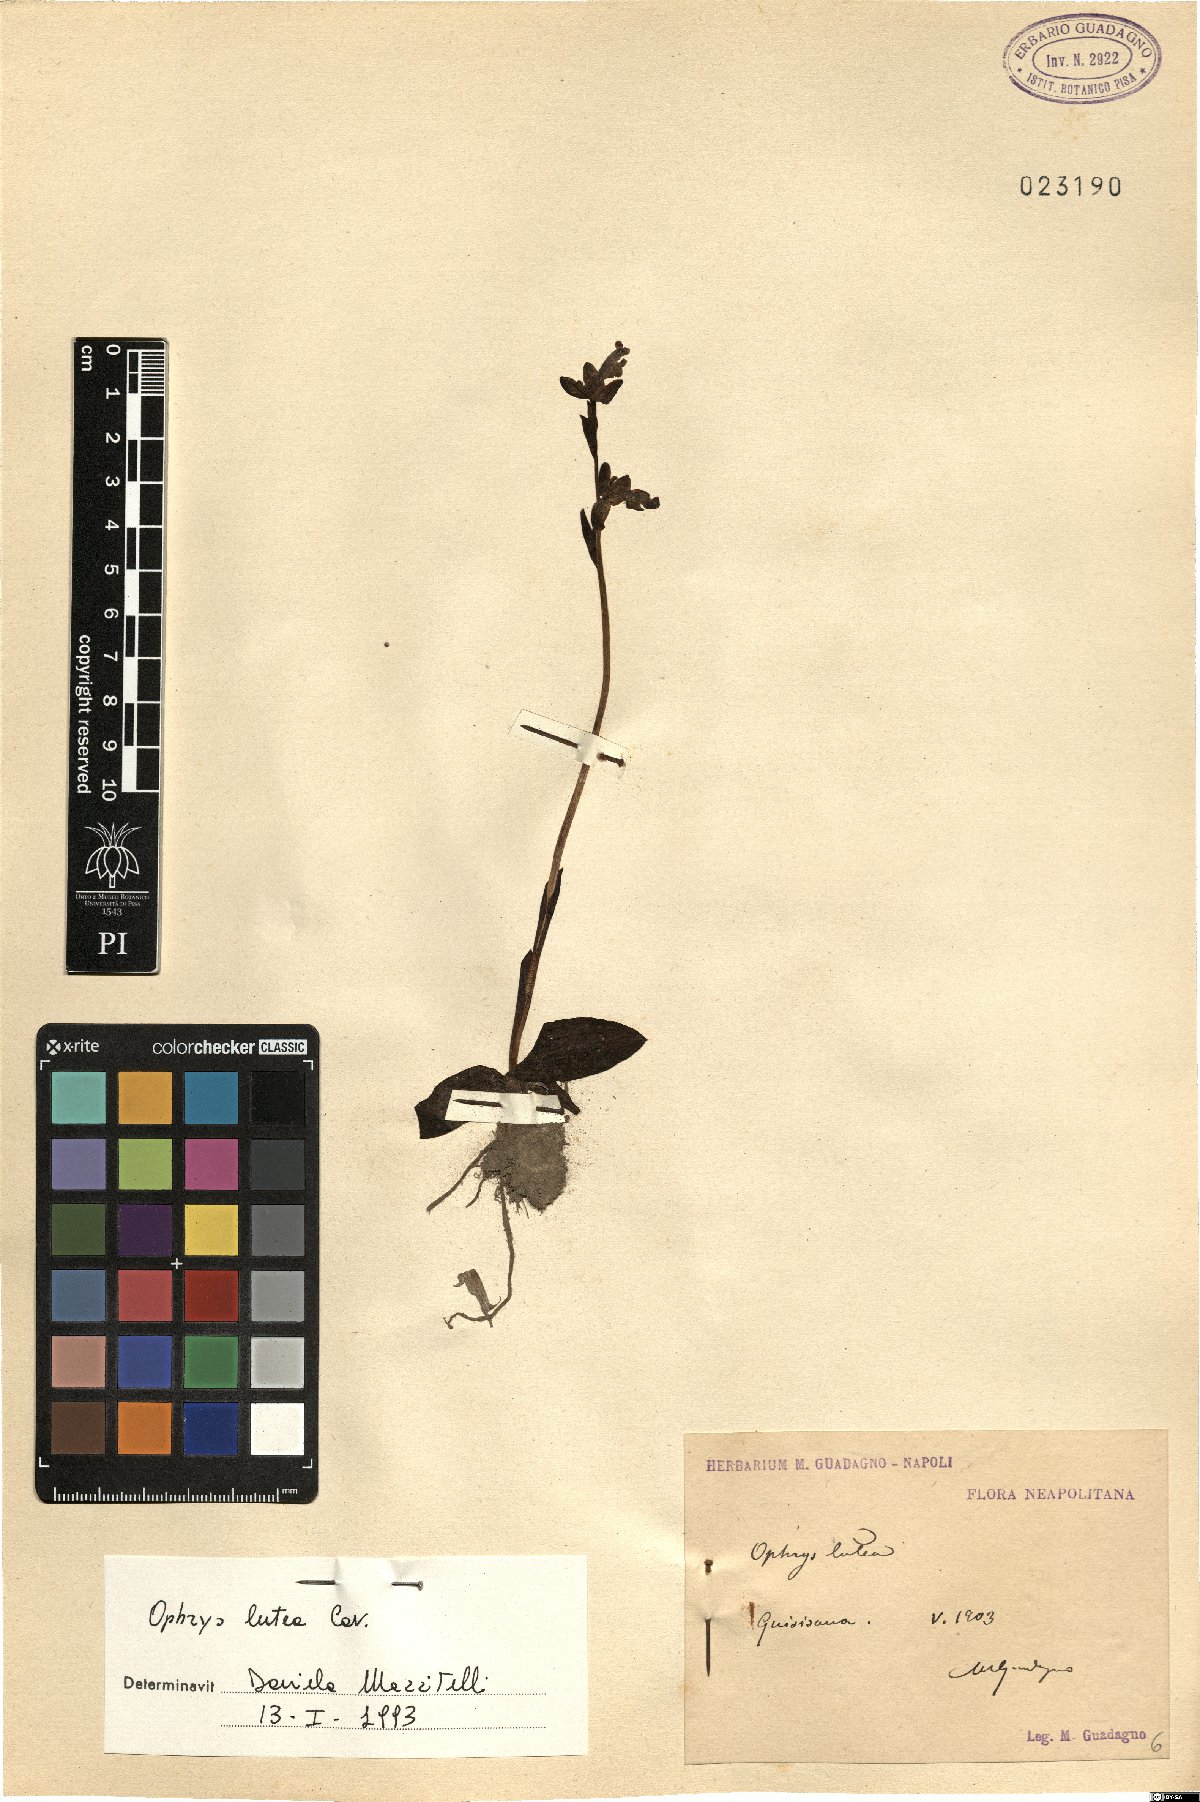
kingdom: Plantae
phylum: Tracheophyta
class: Liliopsida
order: Asparagales
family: Orchidaceae
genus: Ophrys
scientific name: Ophrys lutea
